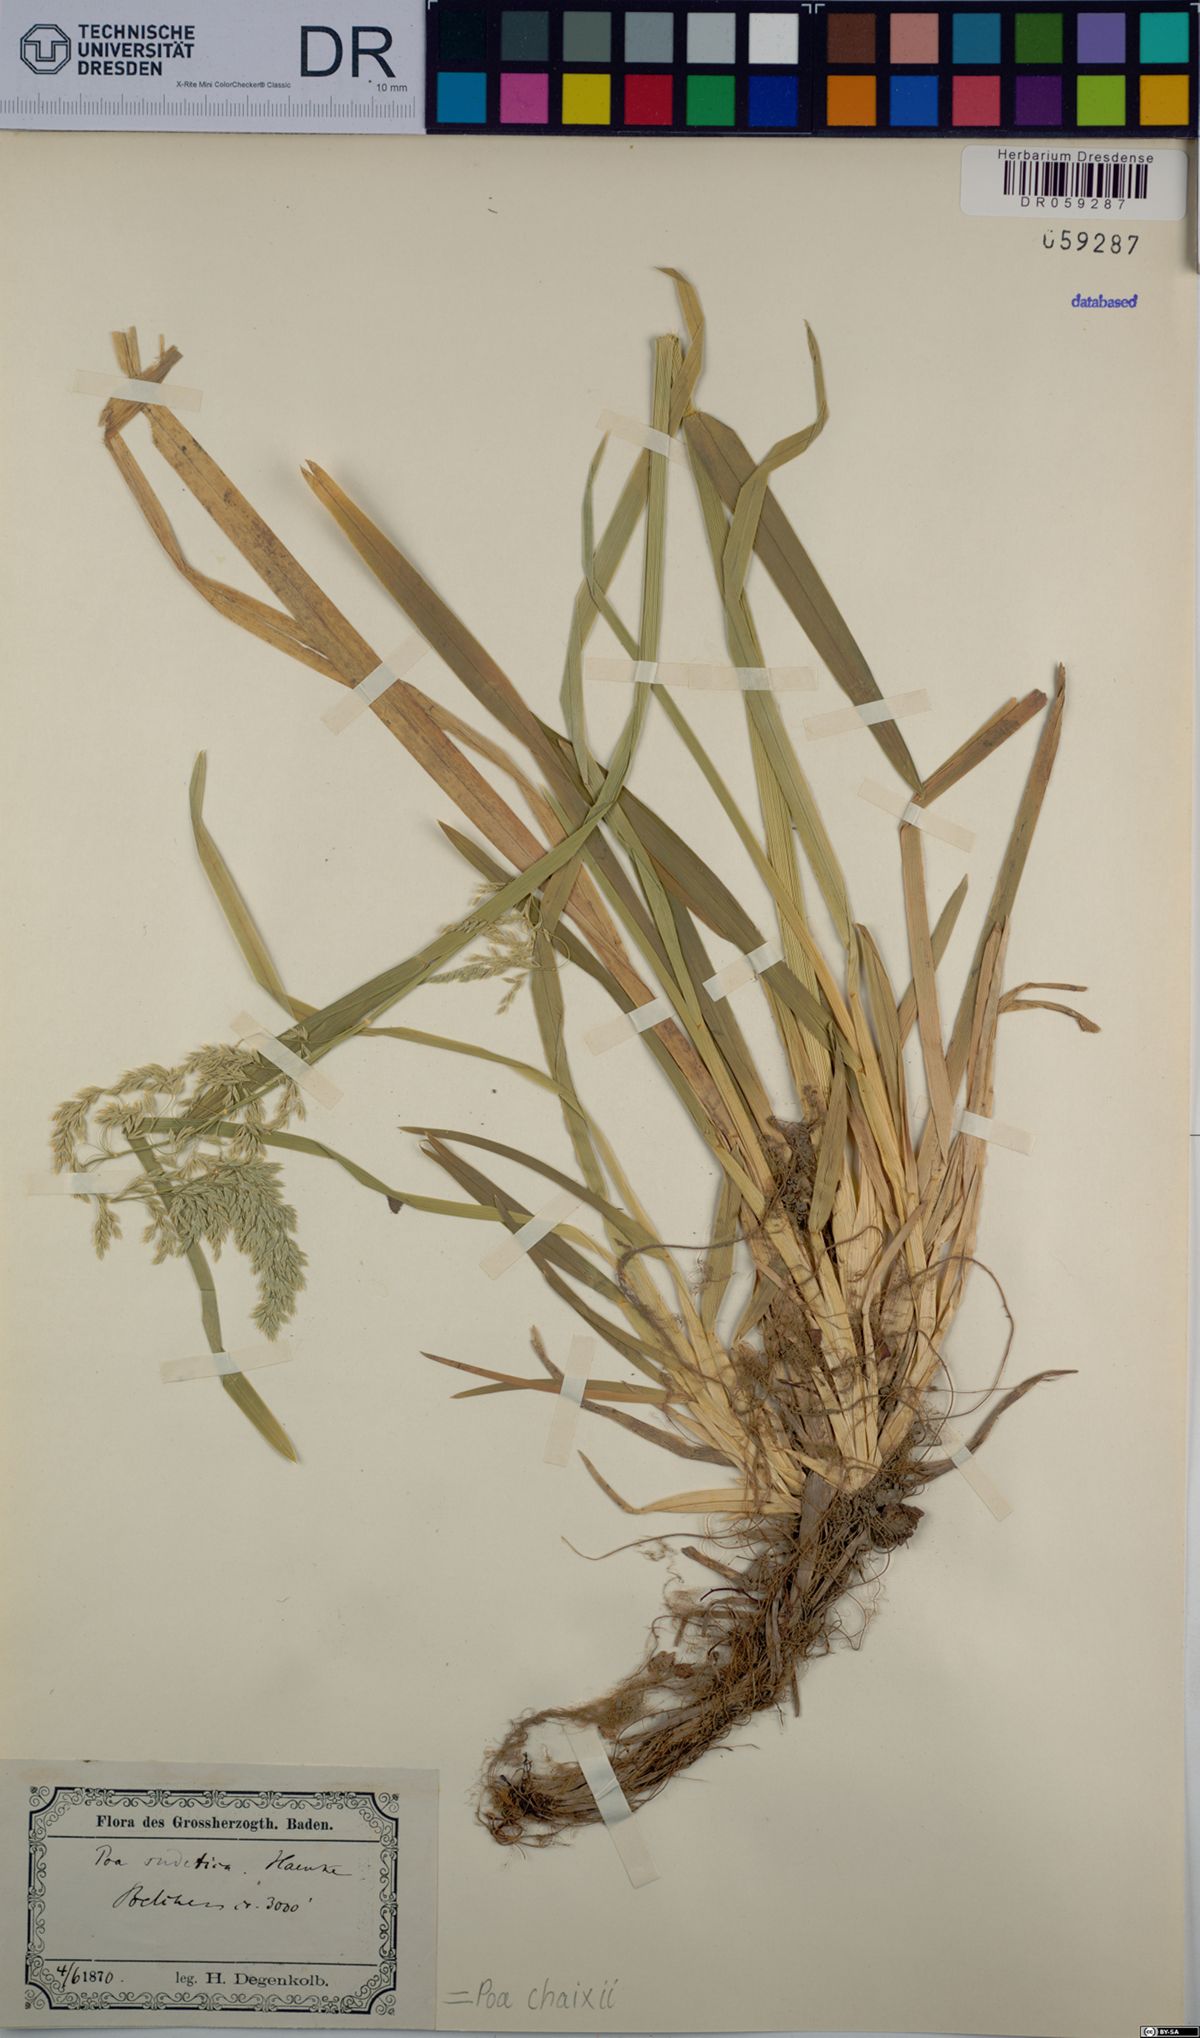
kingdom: Plantae
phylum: Tracheophyta
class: Liliopsida
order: Poales
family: Poaceae
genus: Poa
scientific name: Poa chaixii
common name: Broad-leaved meadow-grass
